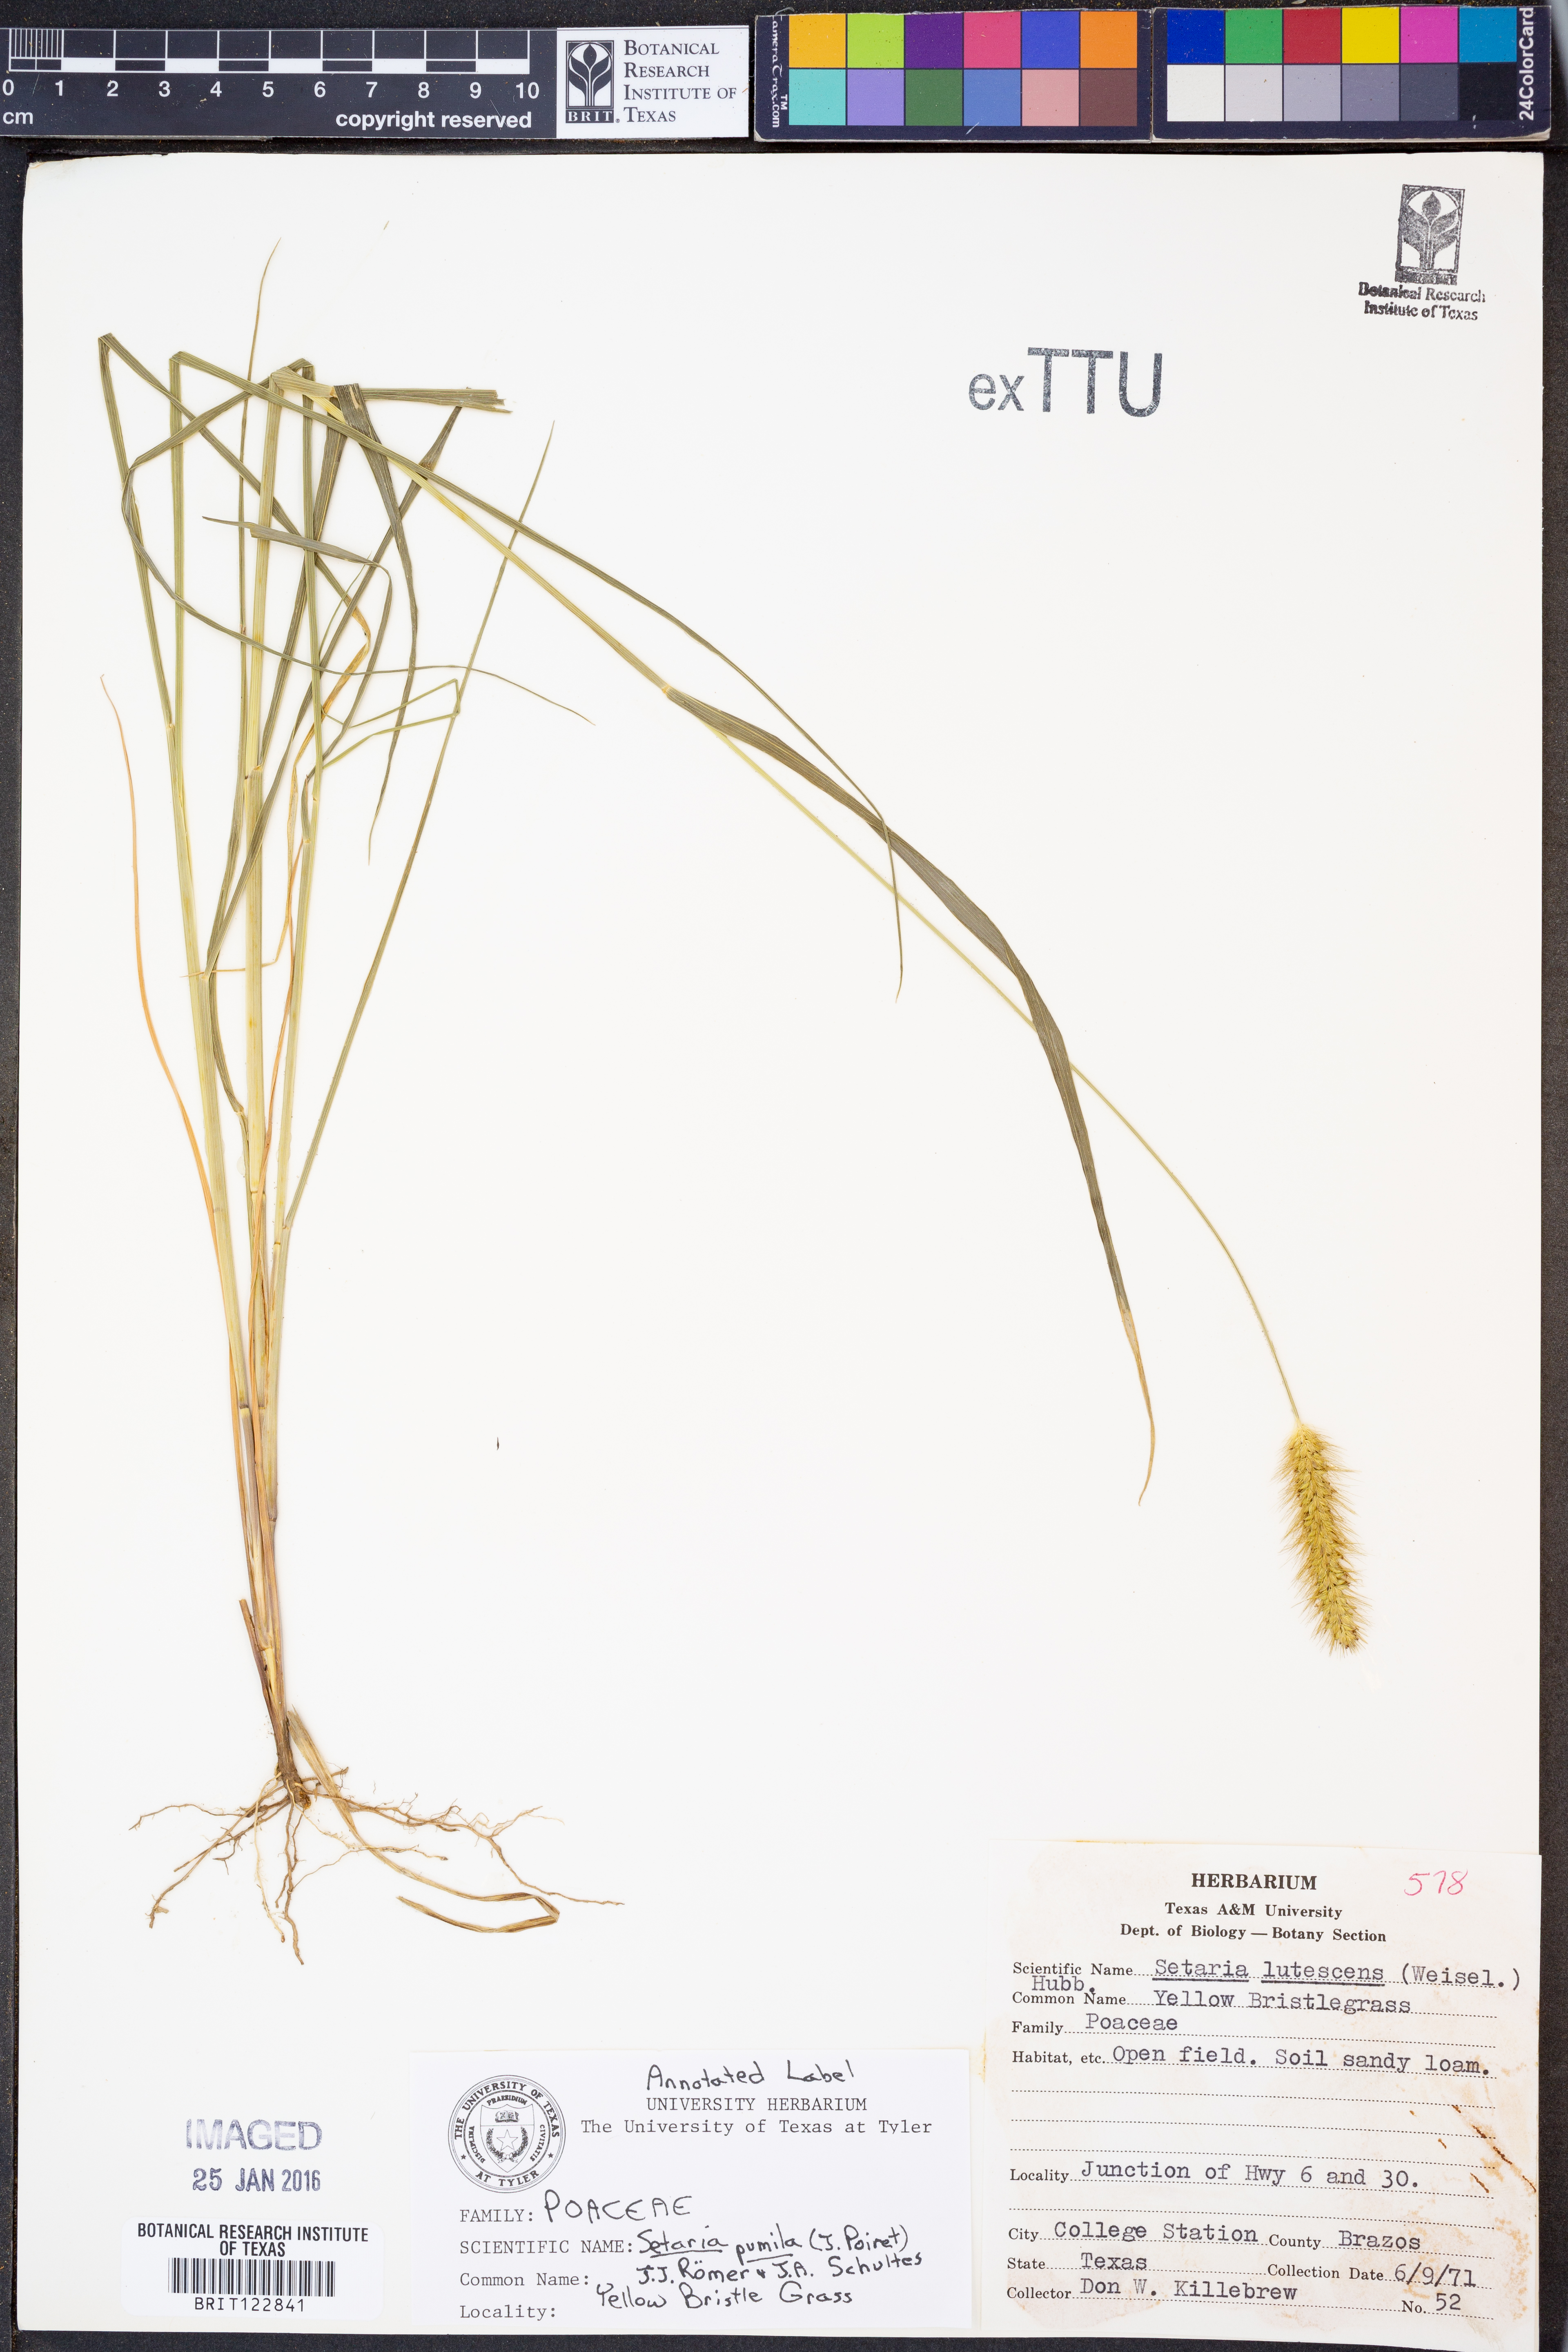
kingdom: Plantae
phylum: Tracheophyta
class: Liliopsida
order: Poales
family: Poaceae
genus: Setaria
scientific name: Setaria pumila
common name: Yellow bristle-grass
